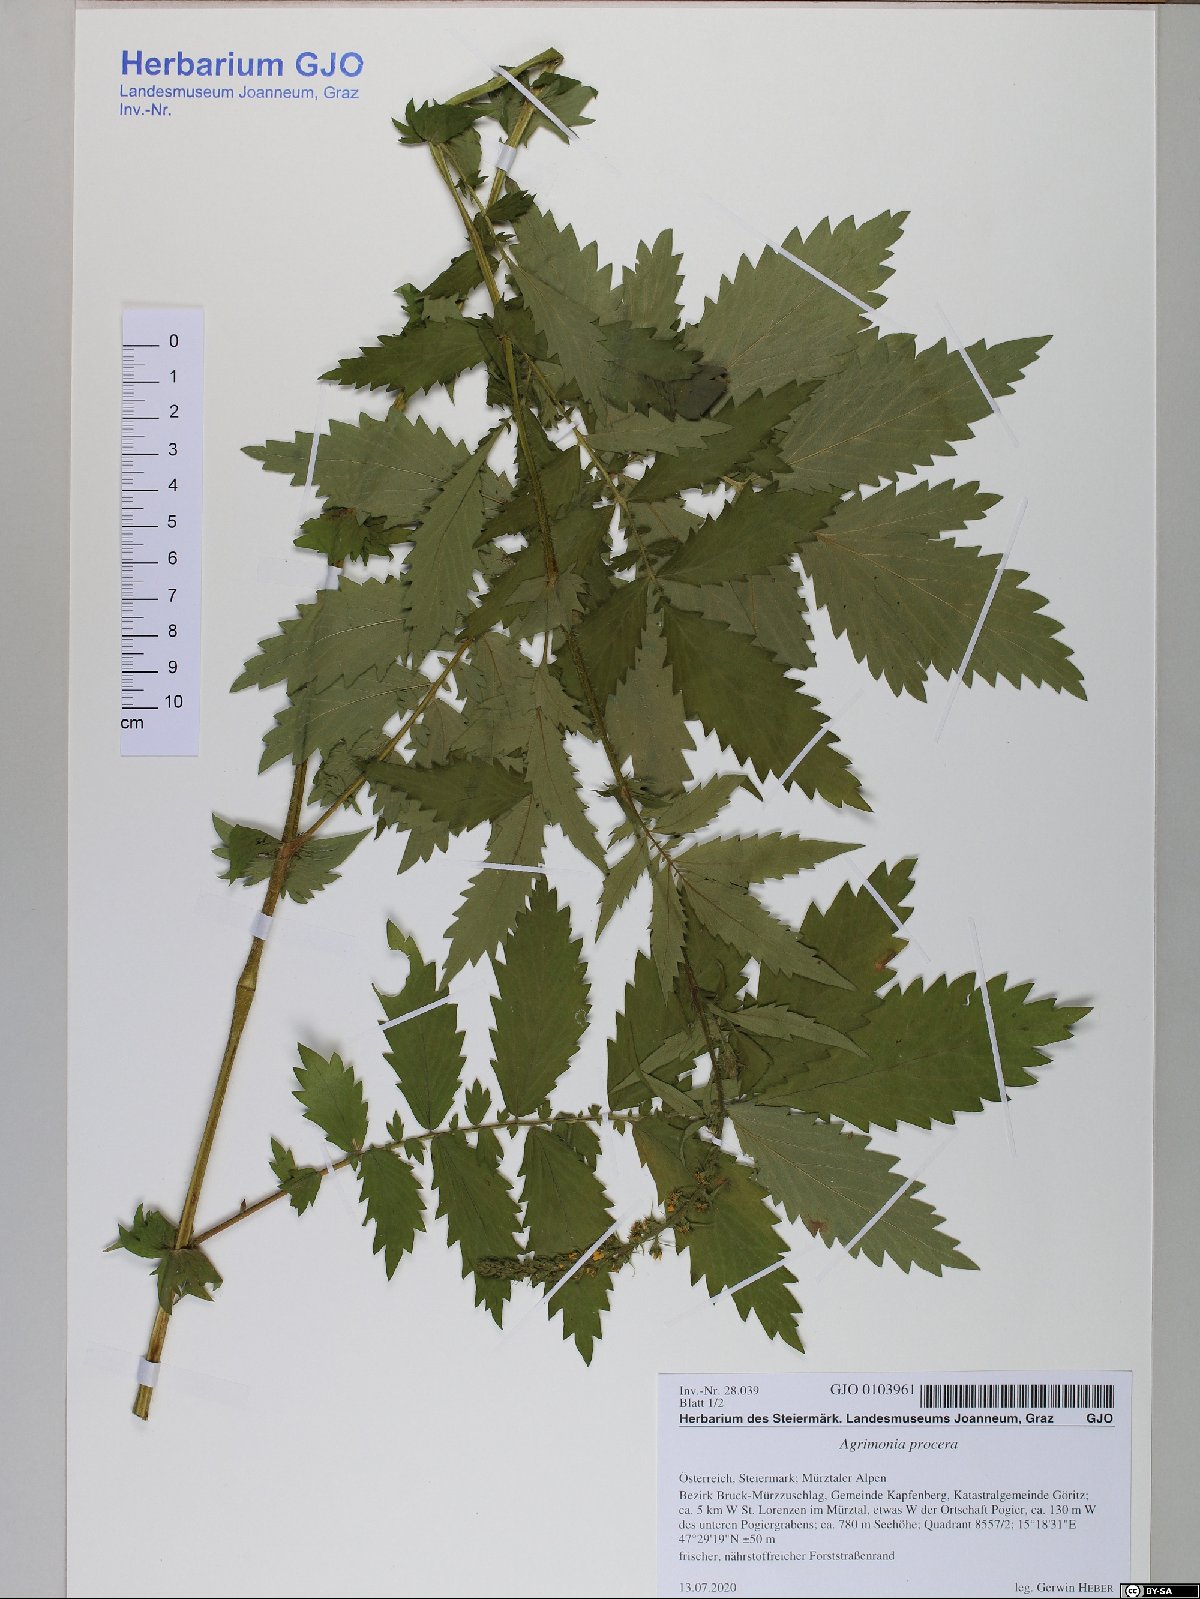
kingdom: Plantae
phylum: Tracheophyta
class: Magnoliopsida
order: Rosales
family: Rosaceae
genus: Agrimonia
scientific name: Agrimonia procera
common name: Fragrant agrimony
